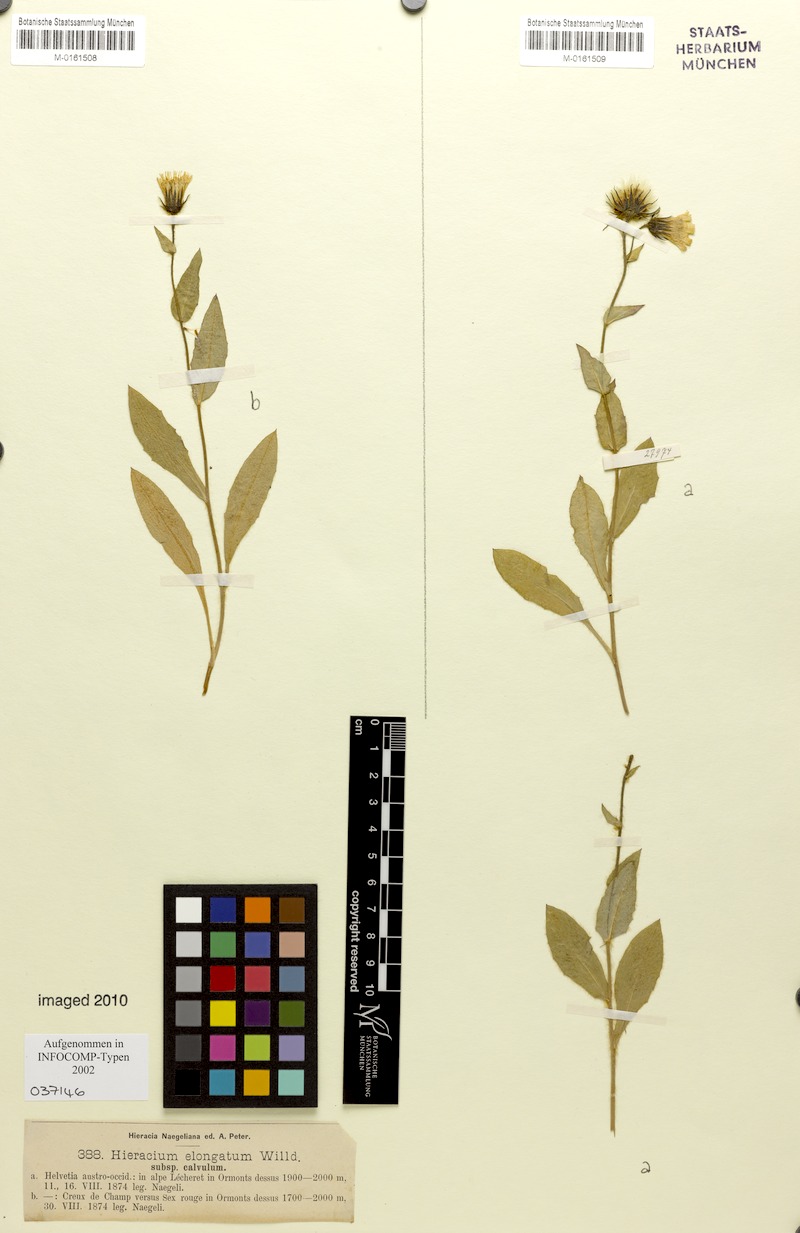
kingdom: Plantae
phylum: Tracheophyta
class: Magnoliopsida
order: Asterales
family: Asteraceae
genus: Hieracium
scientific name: Hieracium valdepilosum
